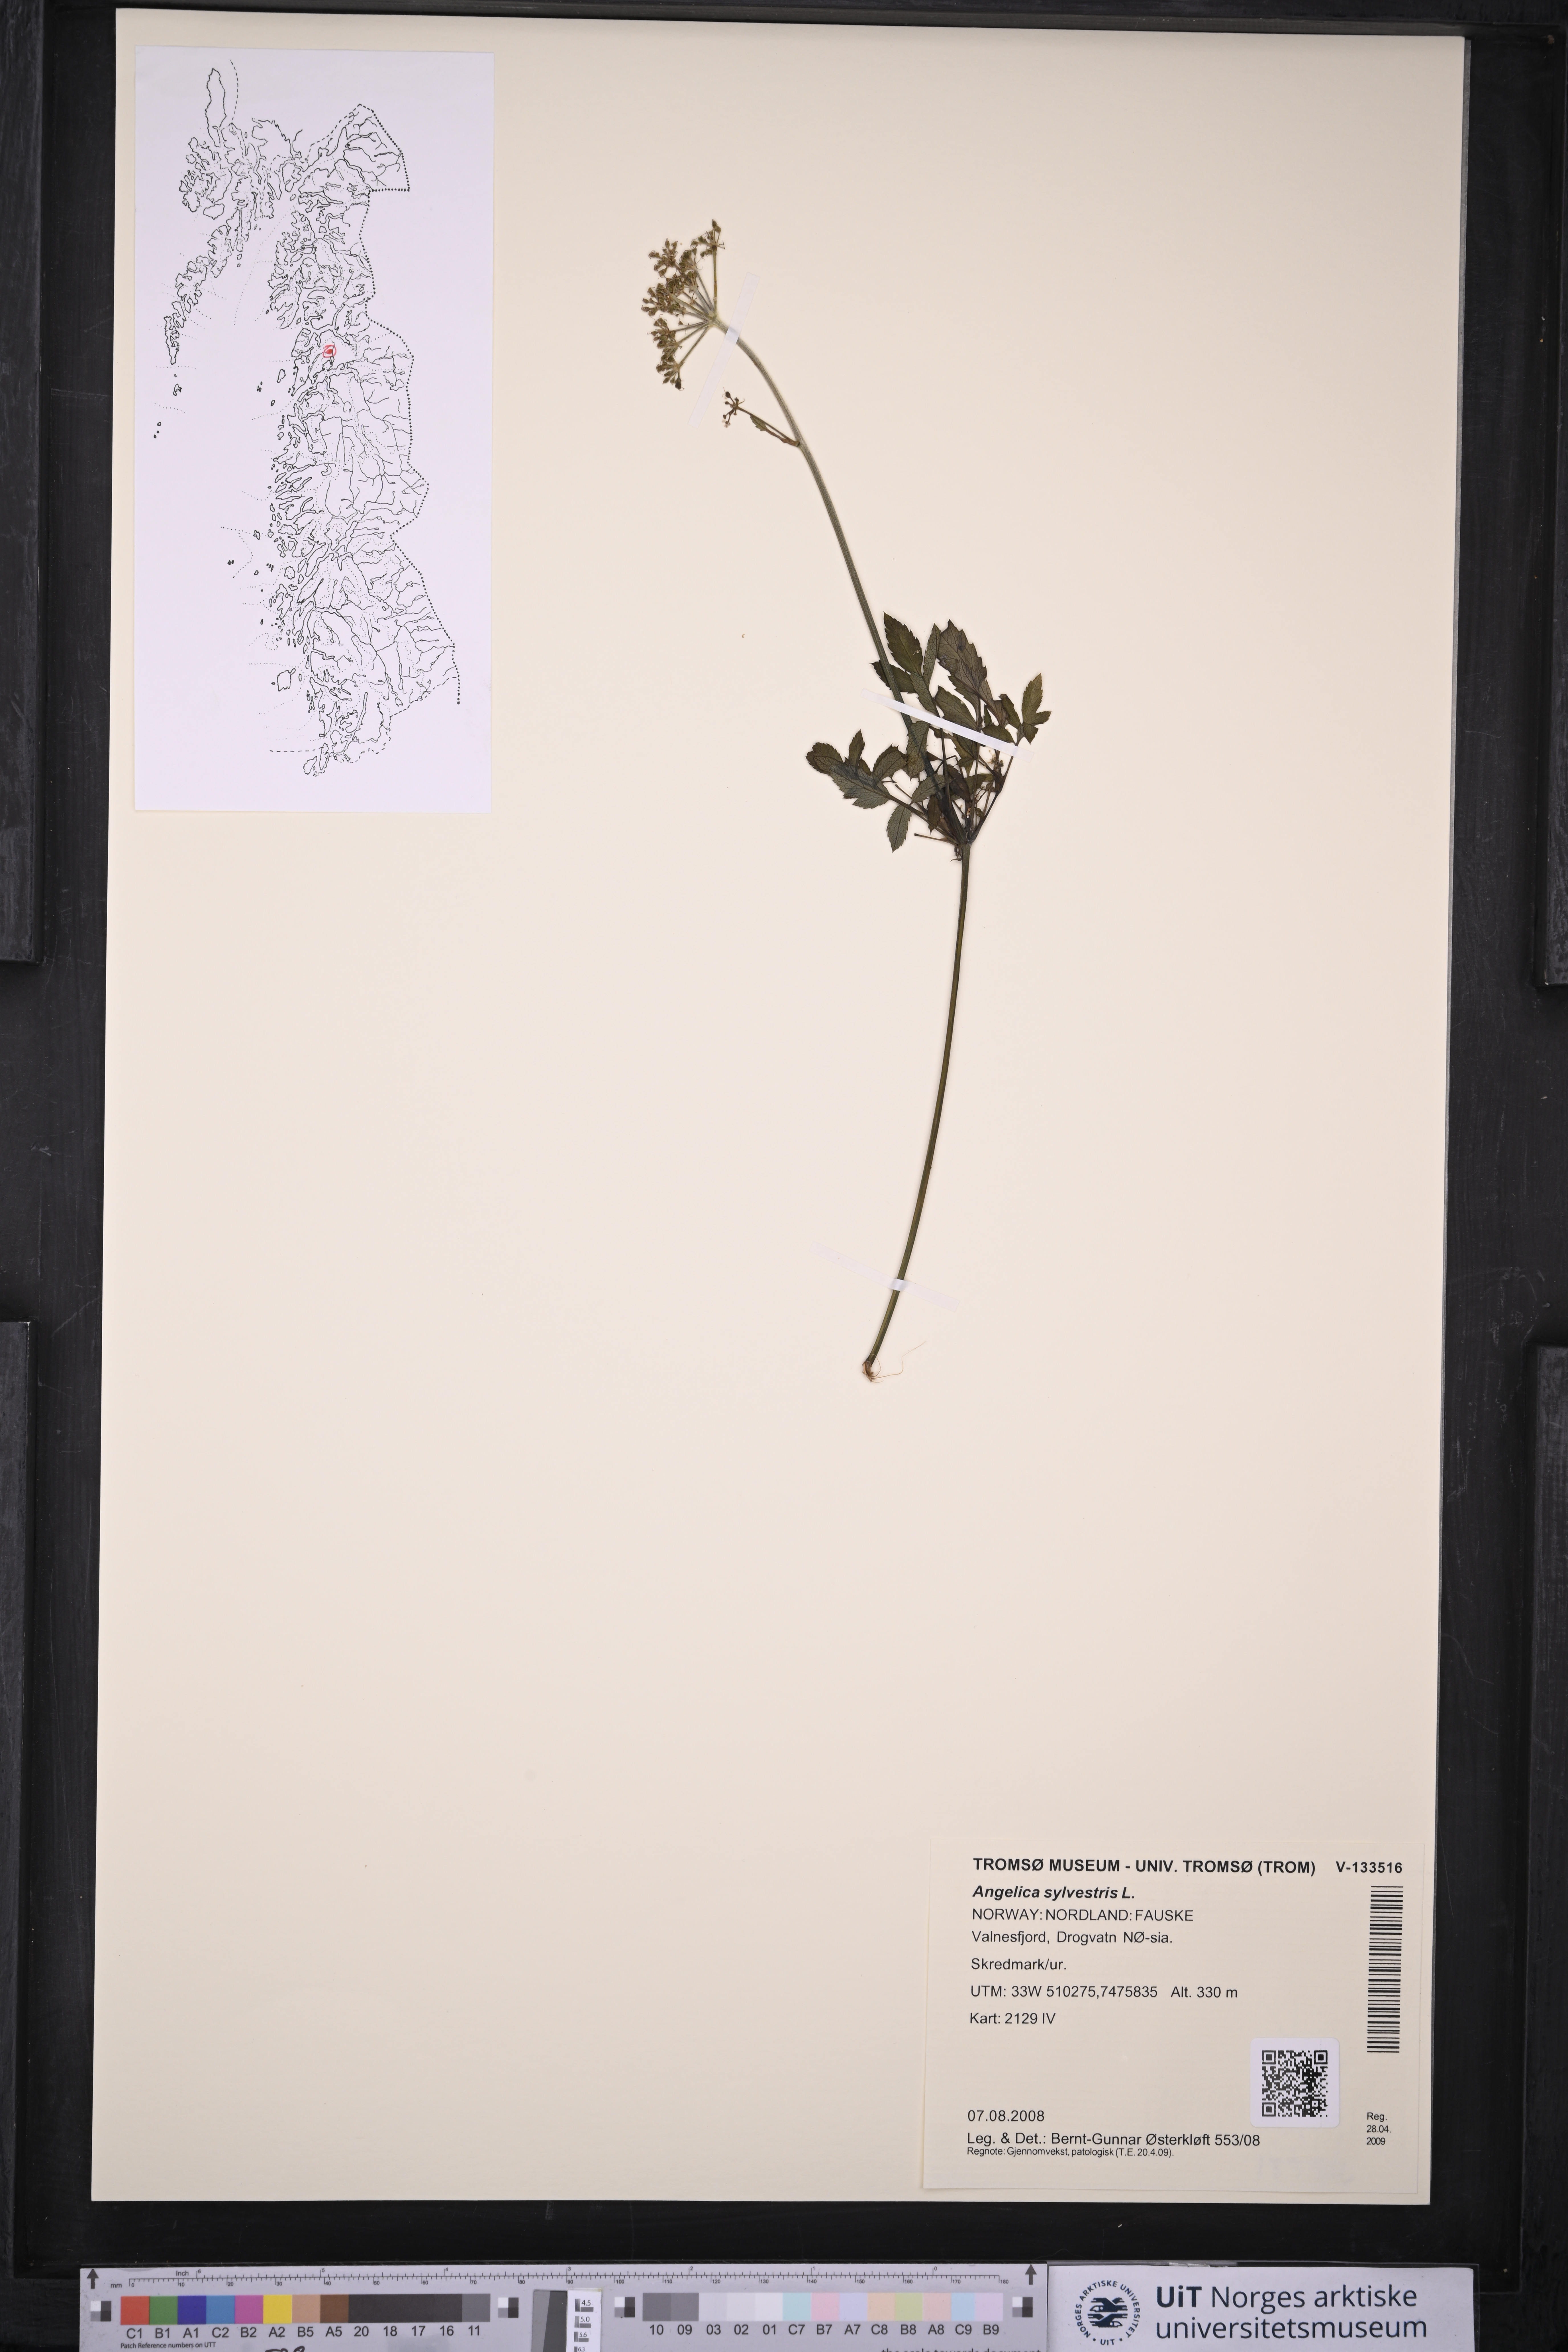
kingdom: Plantae
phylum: Tracheophyta
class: Magnoliopsida
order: Apiales
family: Apiaceae
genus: Angelica
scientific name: Angelica sylvestris
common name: Wild angelica
